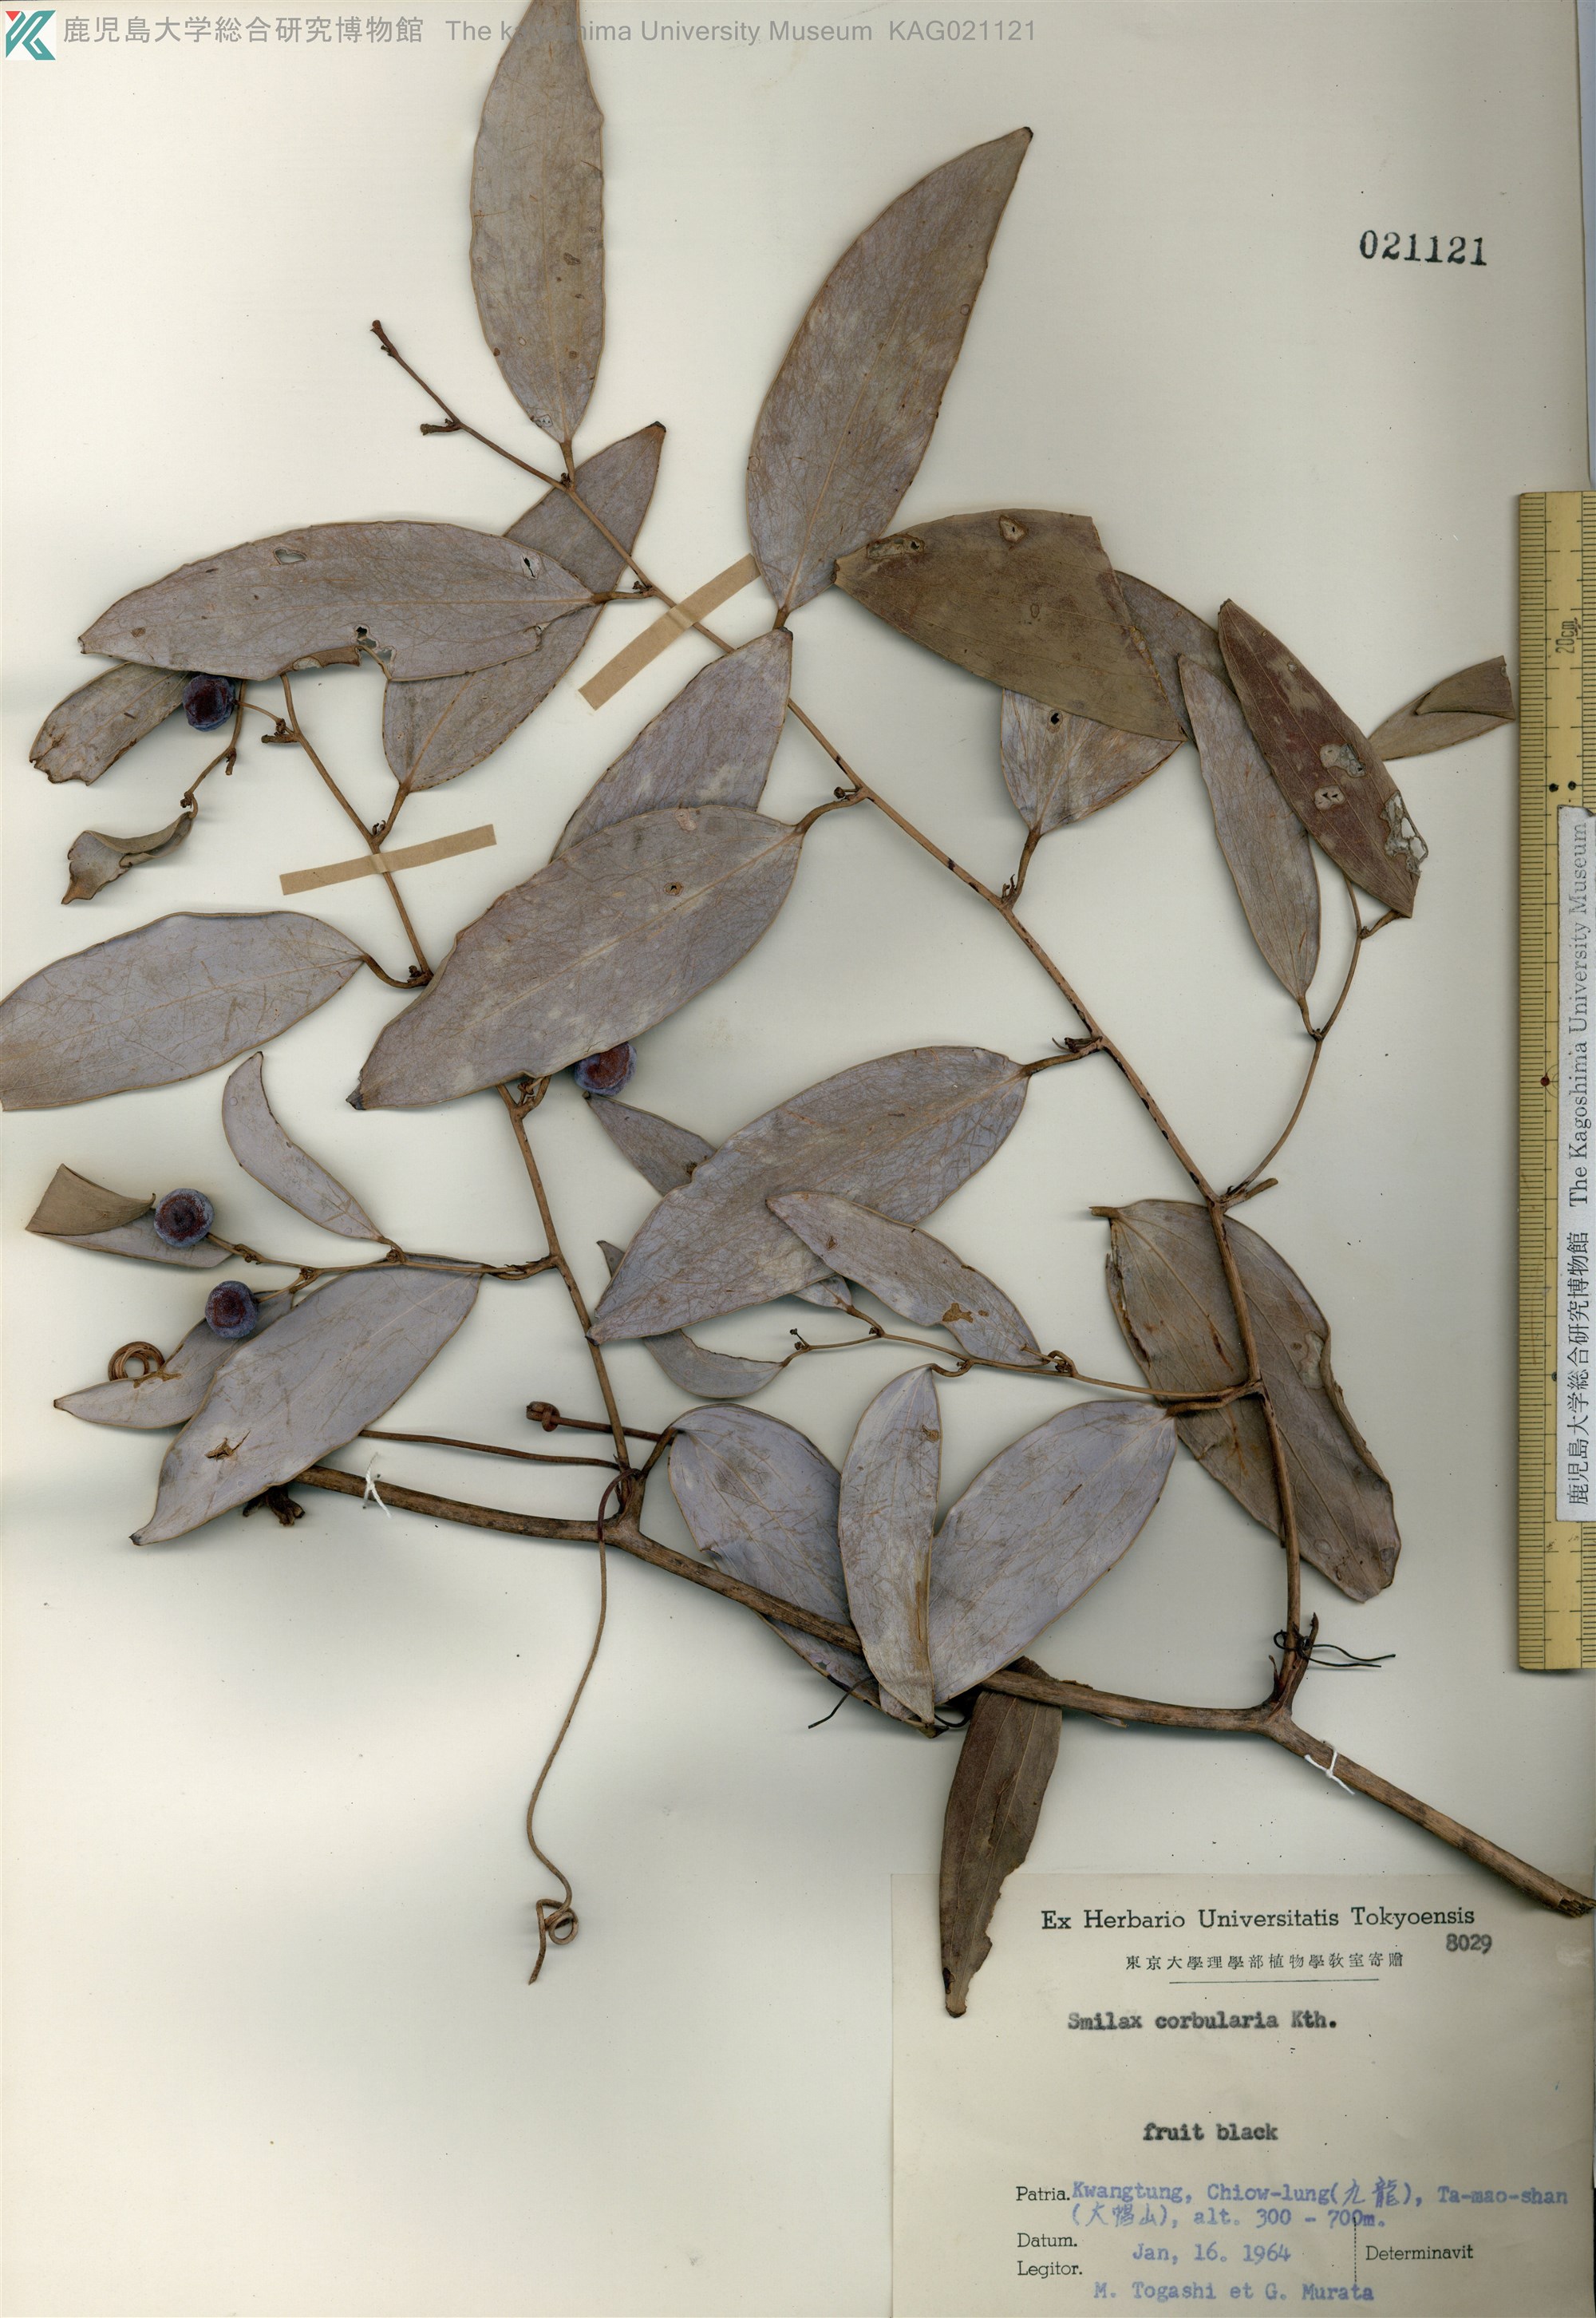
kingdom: Plantae
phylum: Tracheophyta
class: Liliopsida
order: Liliales
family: Smilacaceae
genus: Smilax
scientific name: Smilax corbularia
